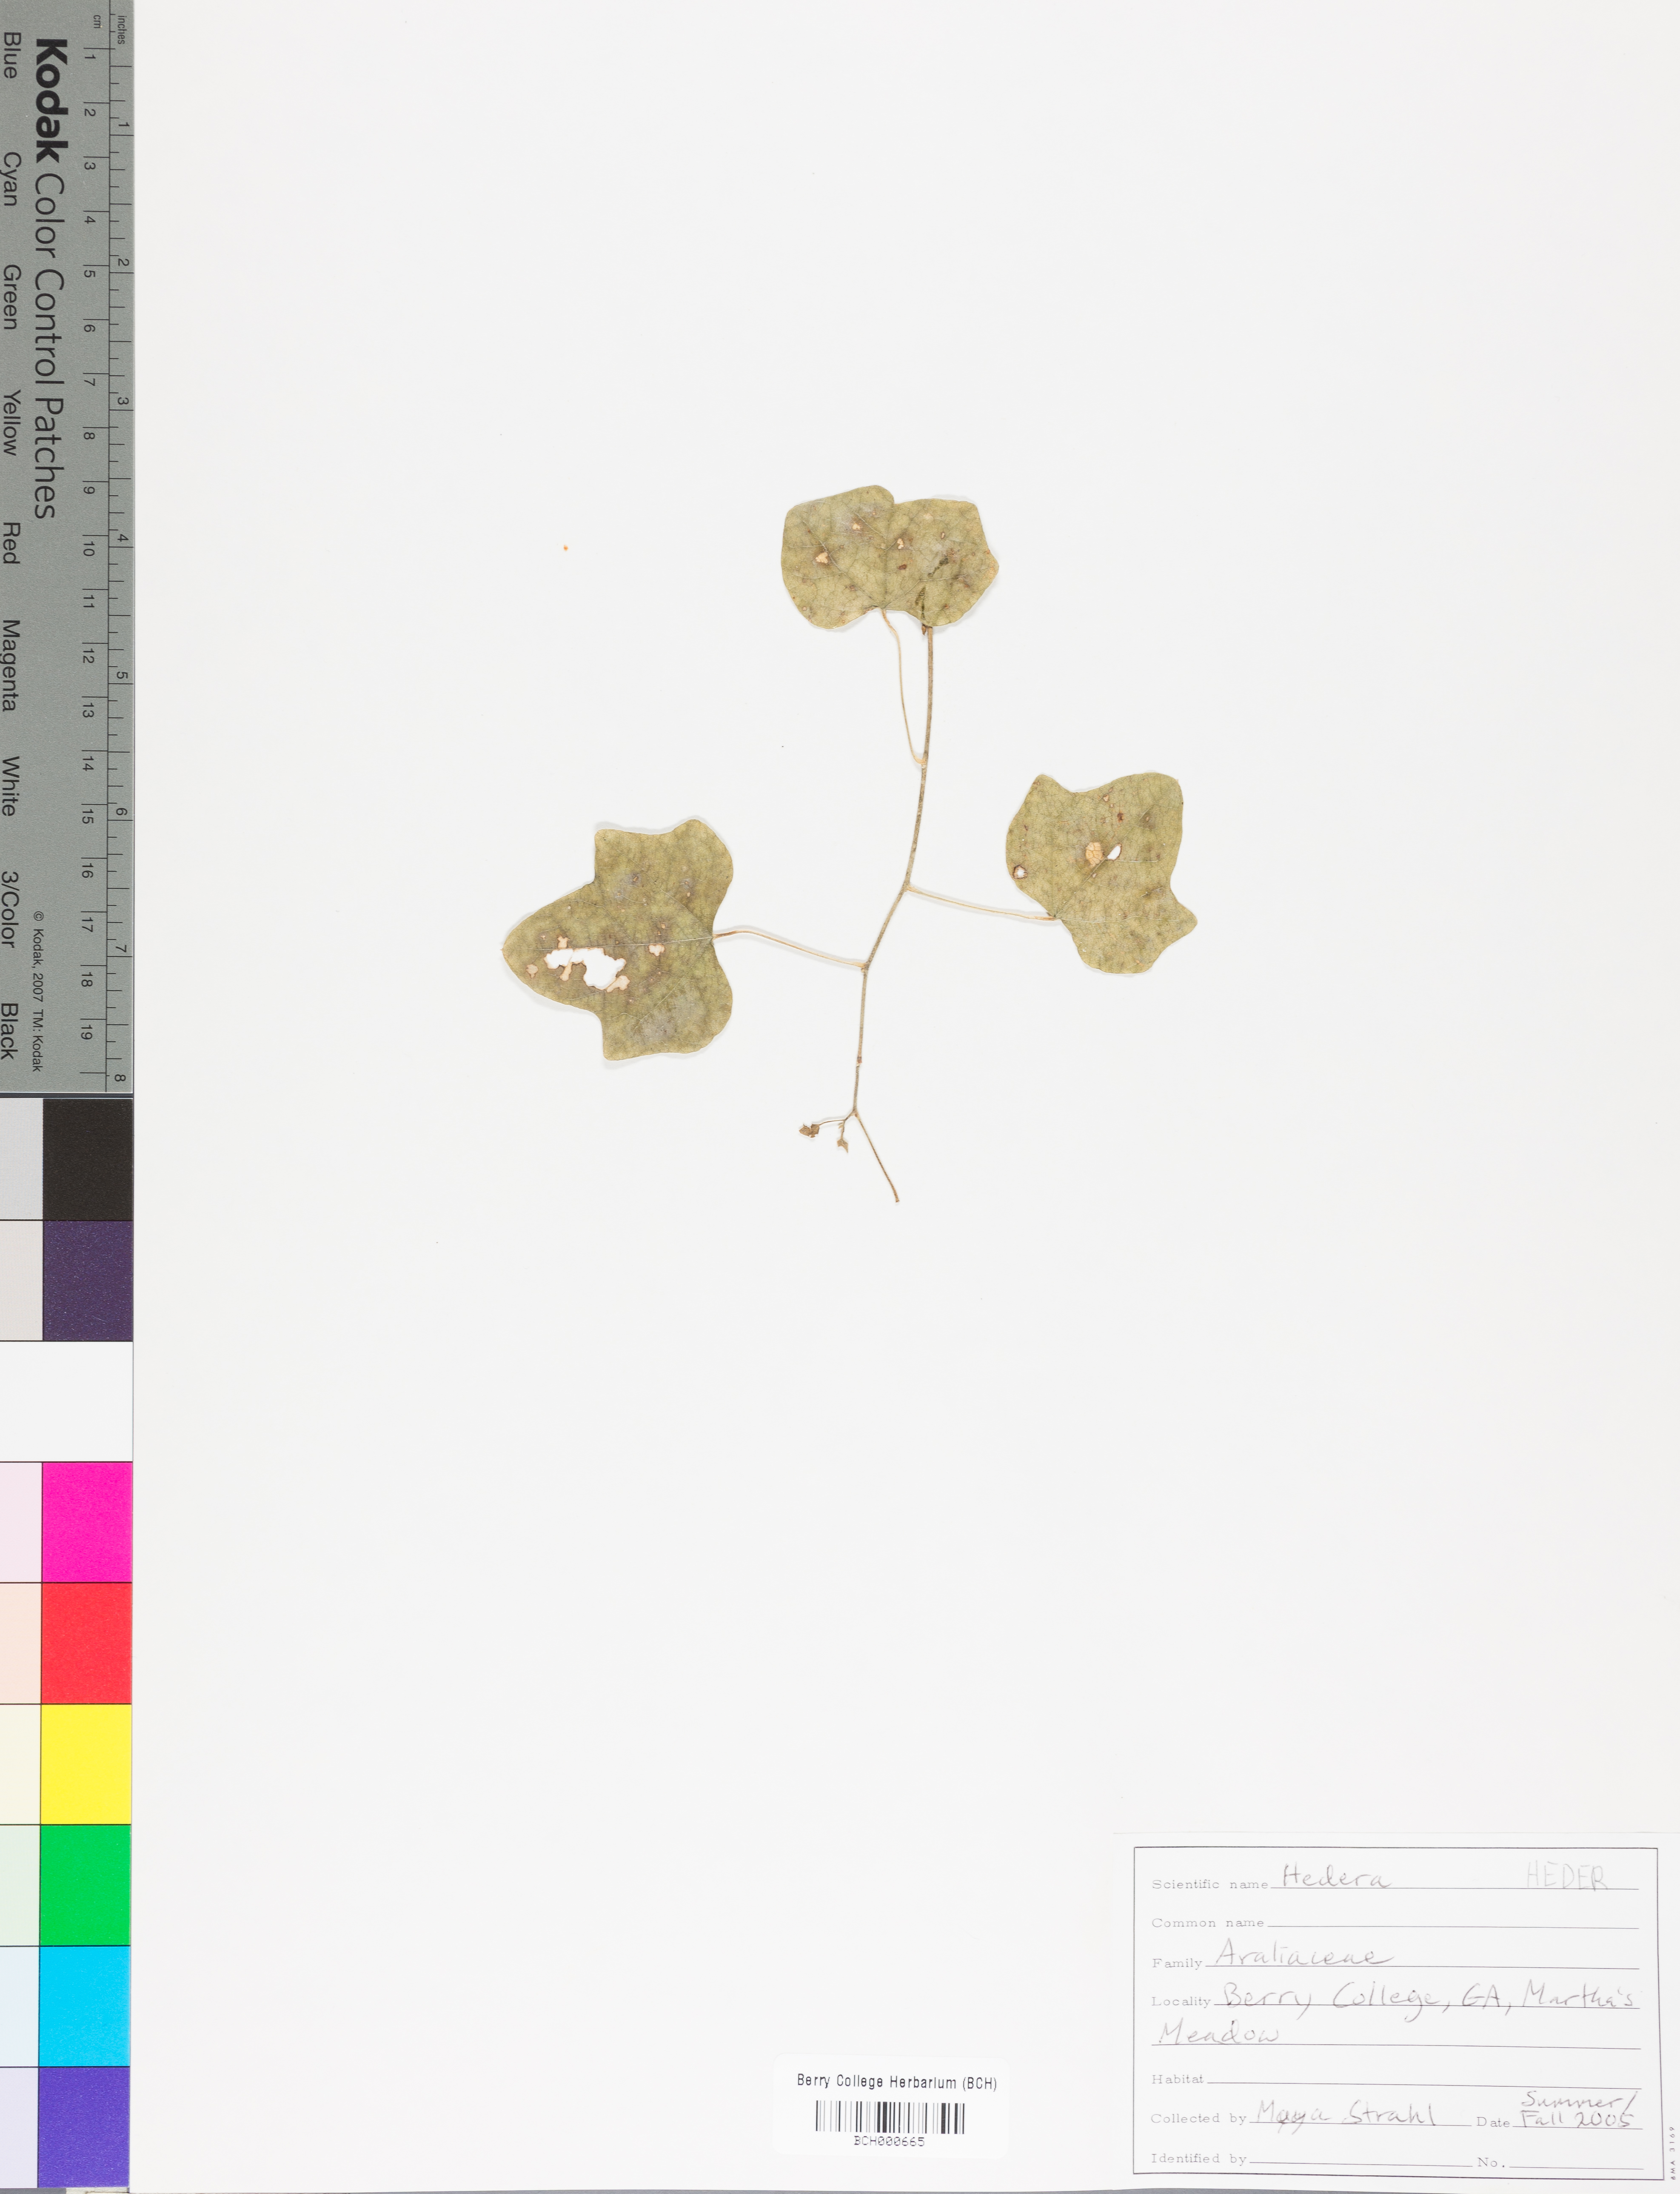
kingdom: Plantae
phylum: Tracheophyta
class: Magnoliopsida
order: Lamiales
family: Acanthaceae
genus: Ruellia
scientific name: Ruellia caroliniensis
